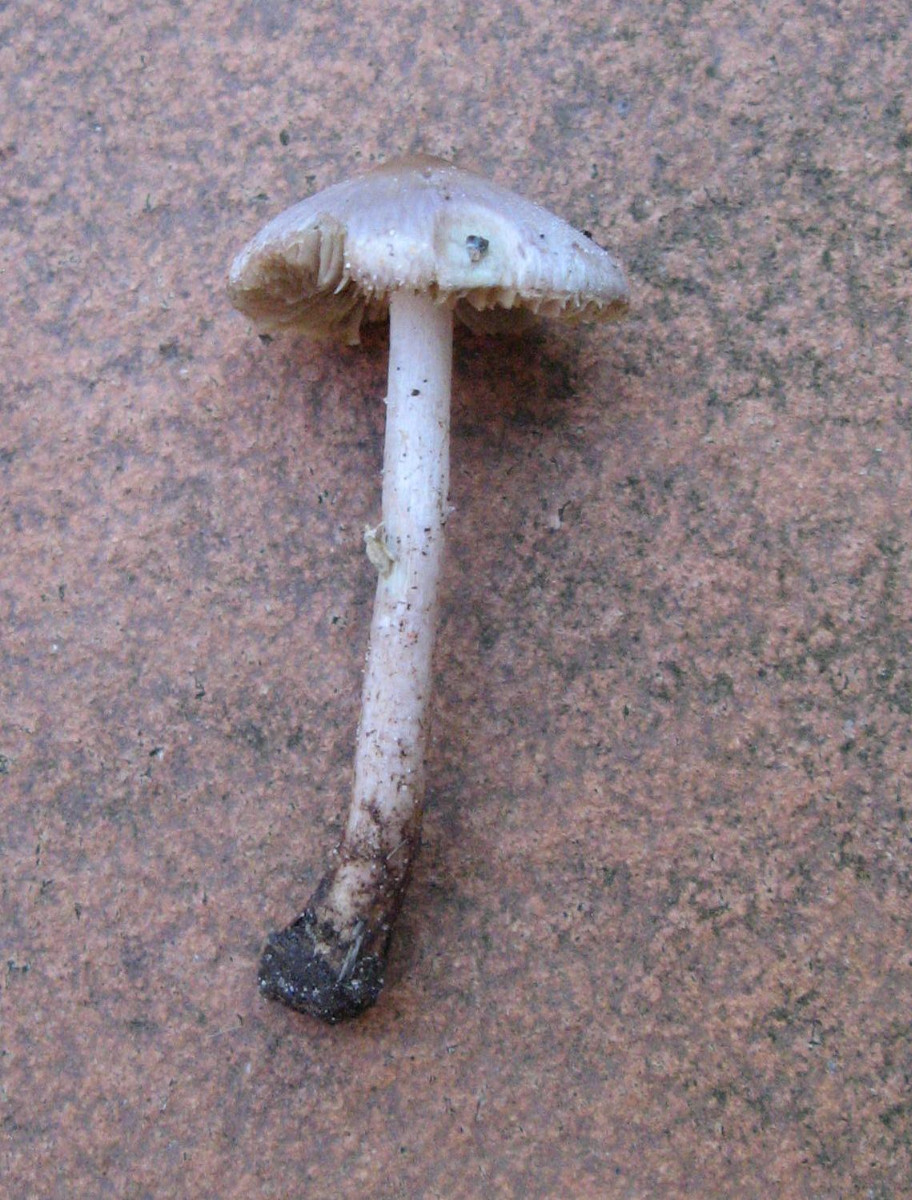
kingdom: Fungi
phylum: Basidiomycota
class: Agaricomycetes
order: Agaricales
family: Inocybaceae
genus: Inocybe
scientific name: Inocybe geophylla
